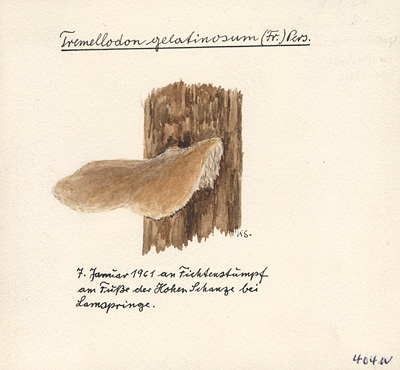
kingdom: Plantae
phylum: Tracheophyta
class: Pinopsida
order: Pinales
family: Pinaceae
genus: Picea
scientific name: Picea abies
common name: Norway spruce
